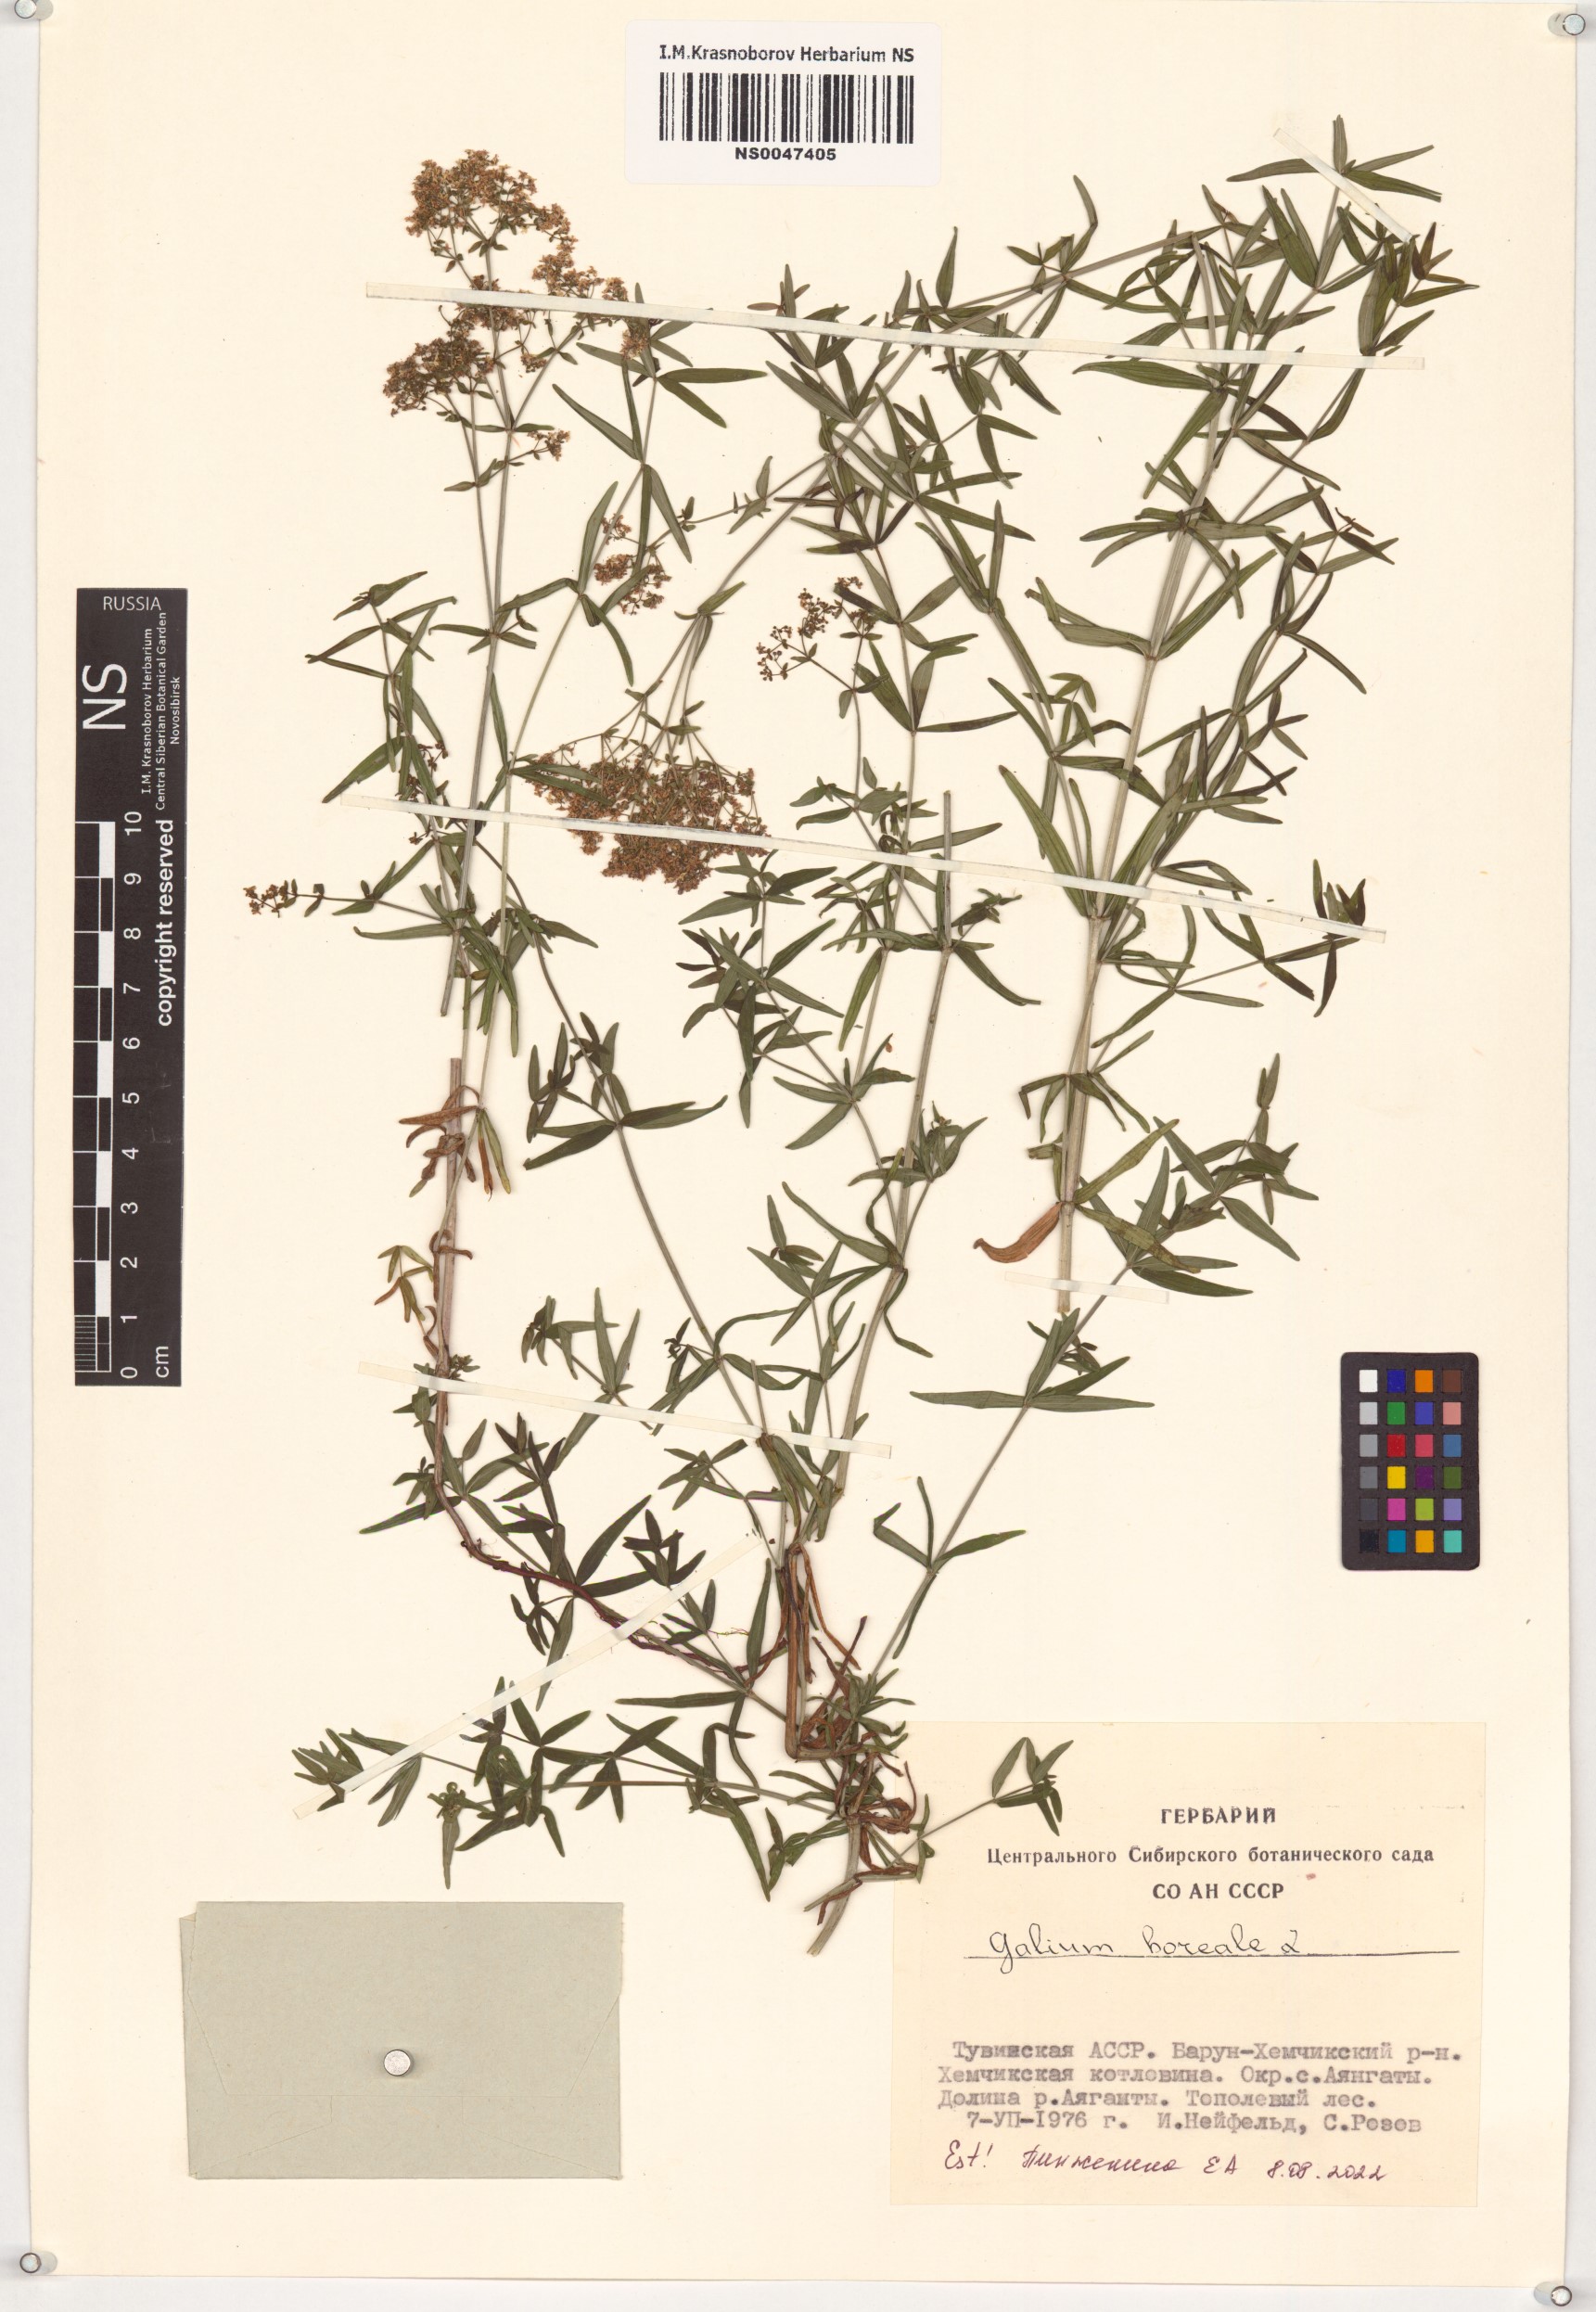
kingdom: Plantae
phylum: Tracheophyta
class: Magnoliopsida
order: Gentianales
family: Rubiaceae
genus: Galium
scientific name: Galium boreale
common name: Northern bedstraw
